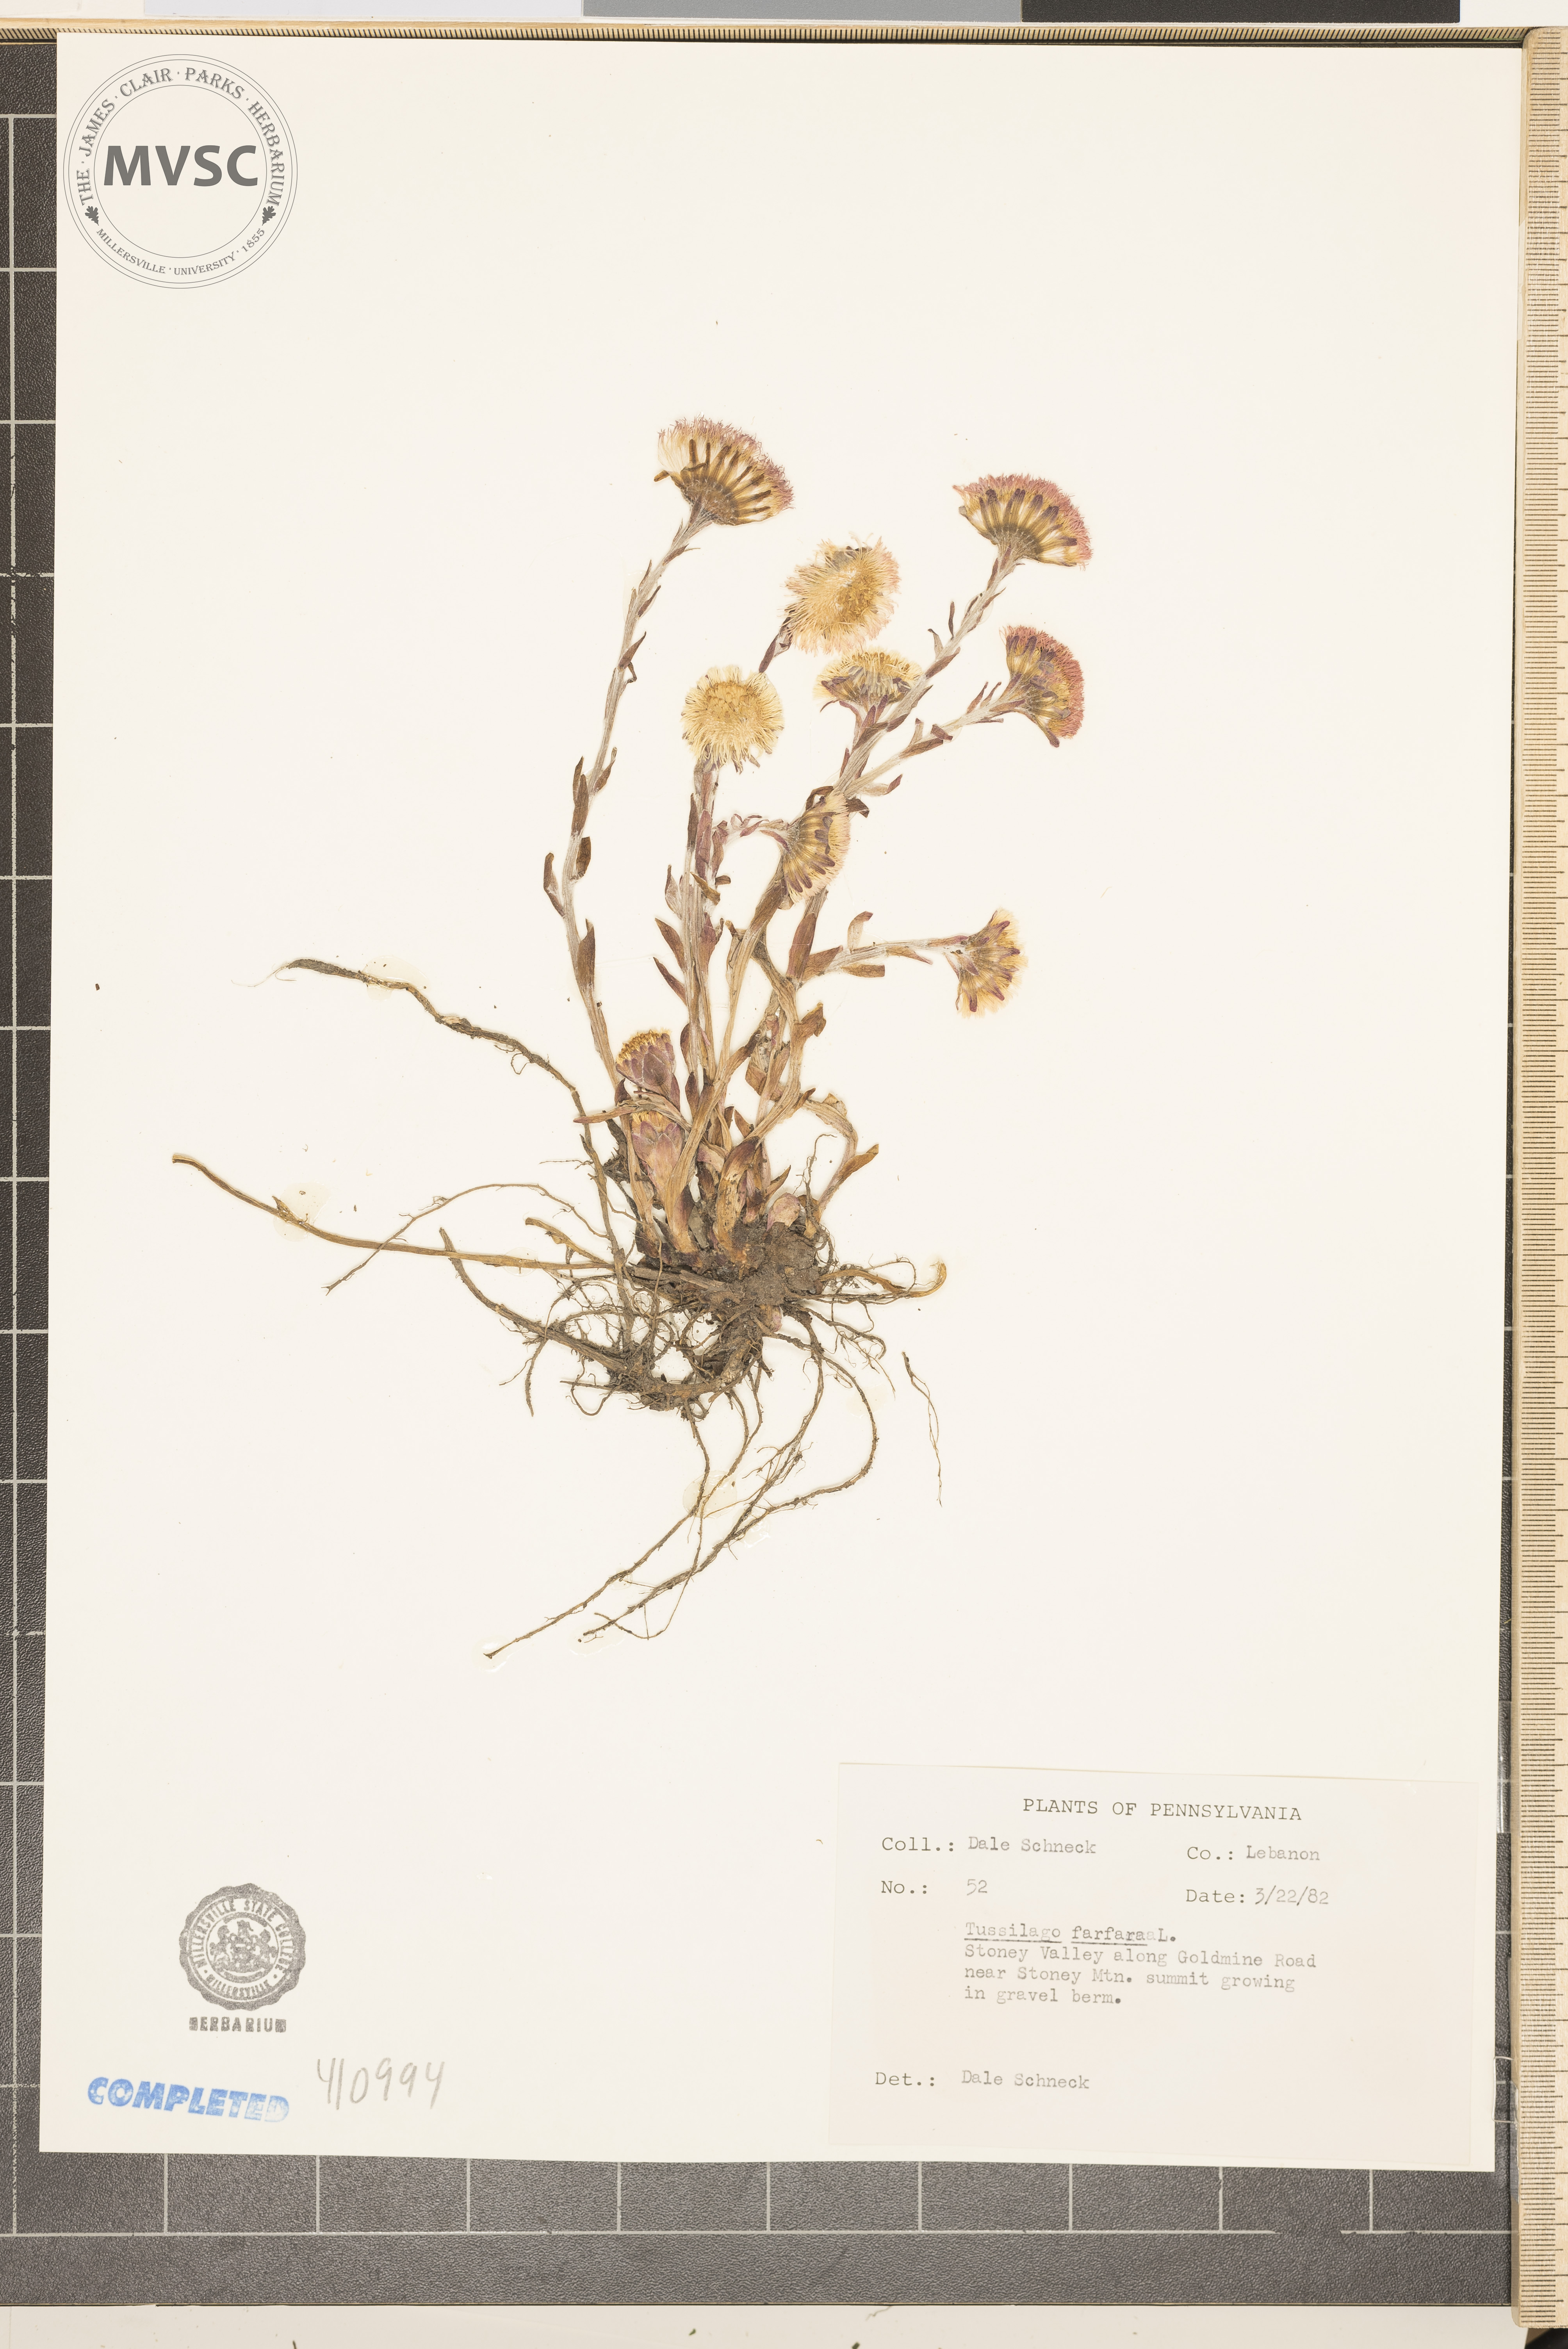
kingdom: Plantae
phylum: Tracheophyta
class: Magnoliopsida
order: Asterales
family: Asteraceae
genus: Tussilago
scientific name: Tussilago farfara
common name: Coltsfoot
